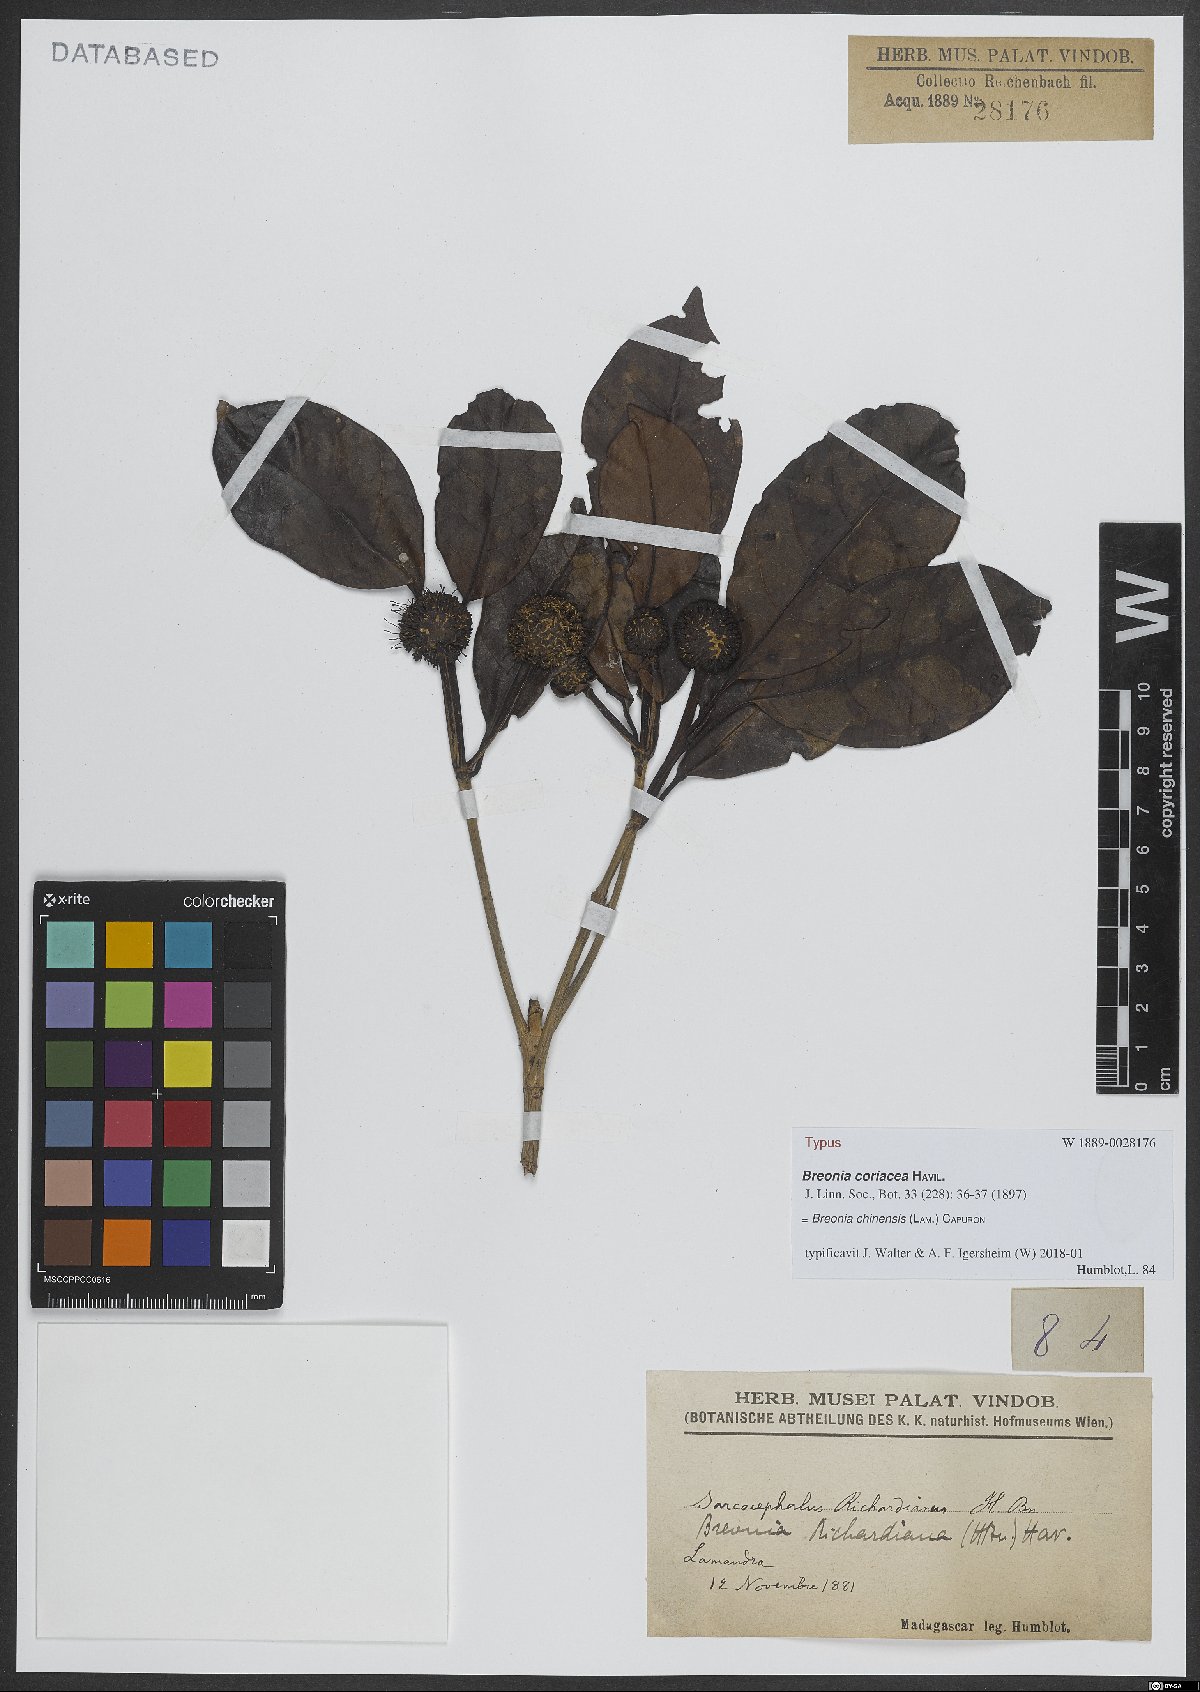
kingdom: Plantae
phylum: Tracheophyta
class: Magnoliopsida
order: Gentianales
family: Rubiaceae
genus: Breonia
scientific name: Breonia chinensis
